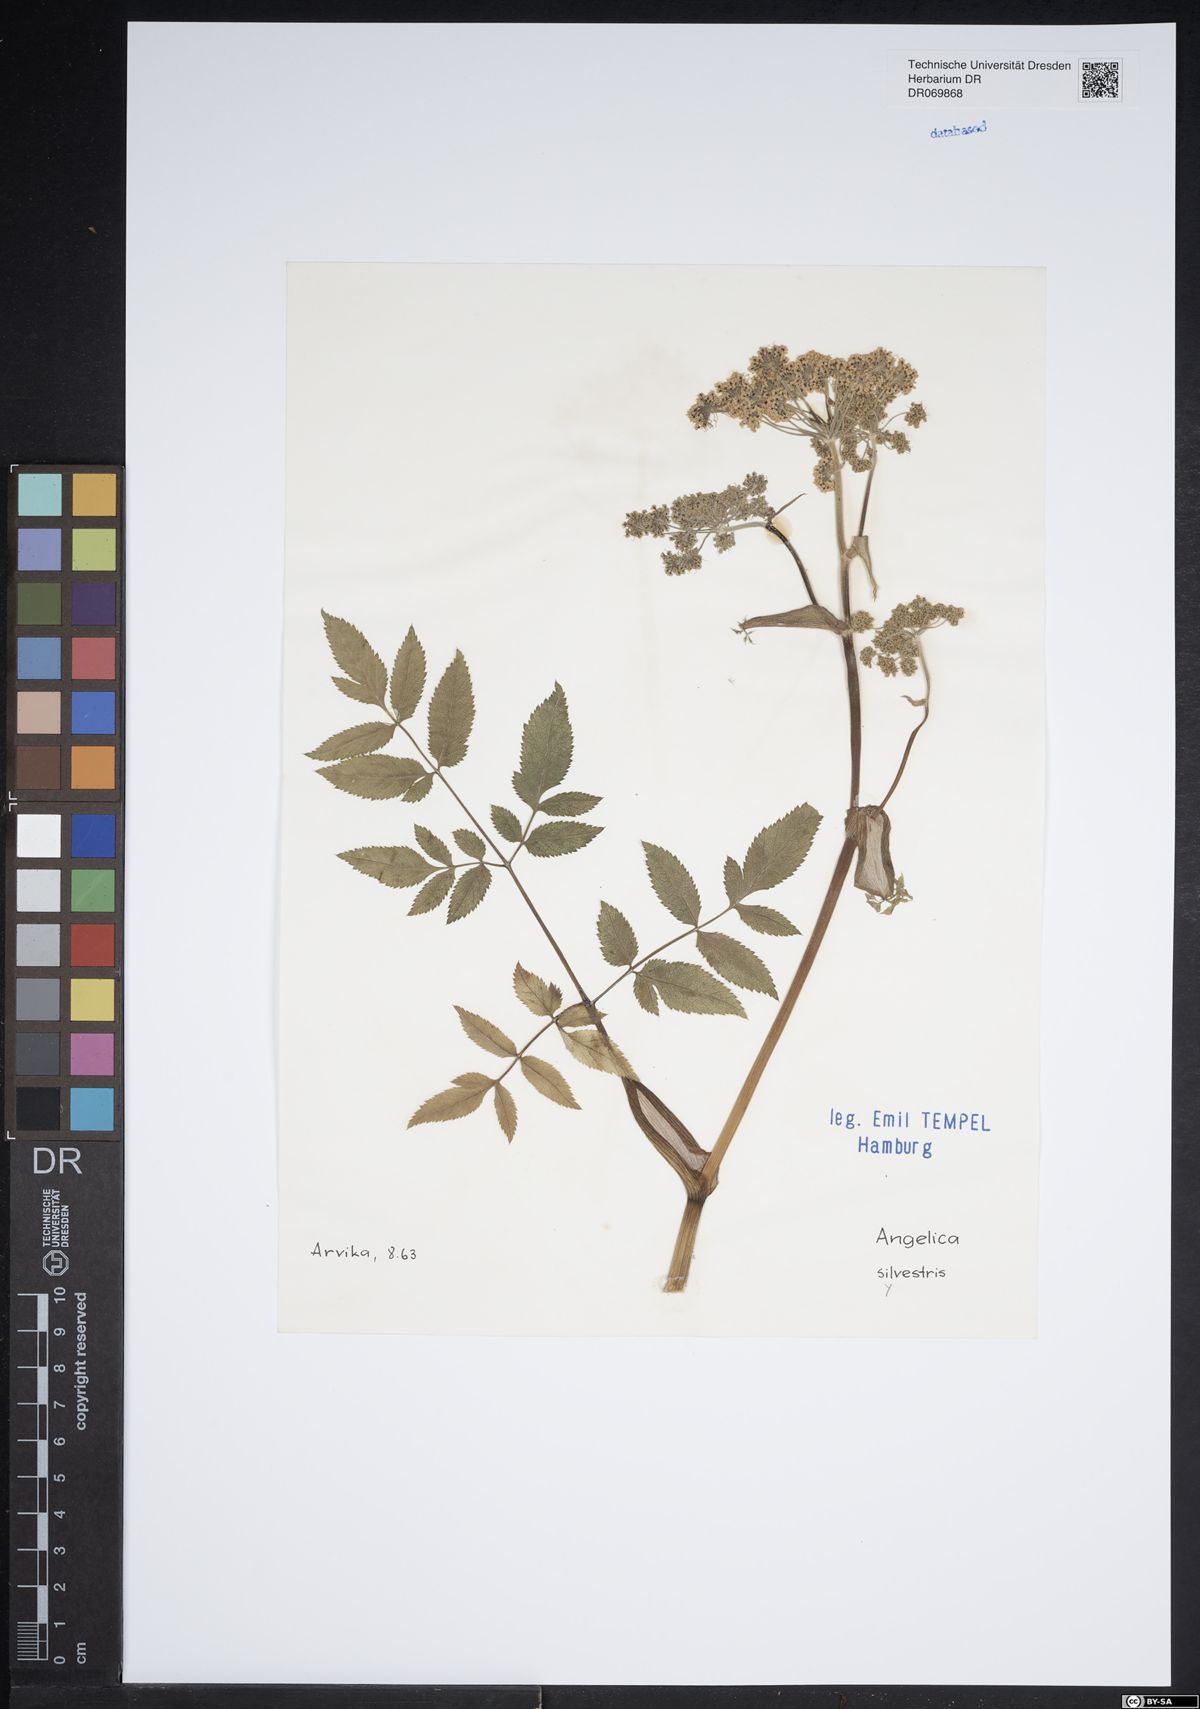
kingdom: Plantae
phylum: Tracheophyta
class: Magnoliopsida
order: Apiales
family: Apiaceae
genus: Angelica
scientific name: Angelica sylvestris
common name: Wild angelica
